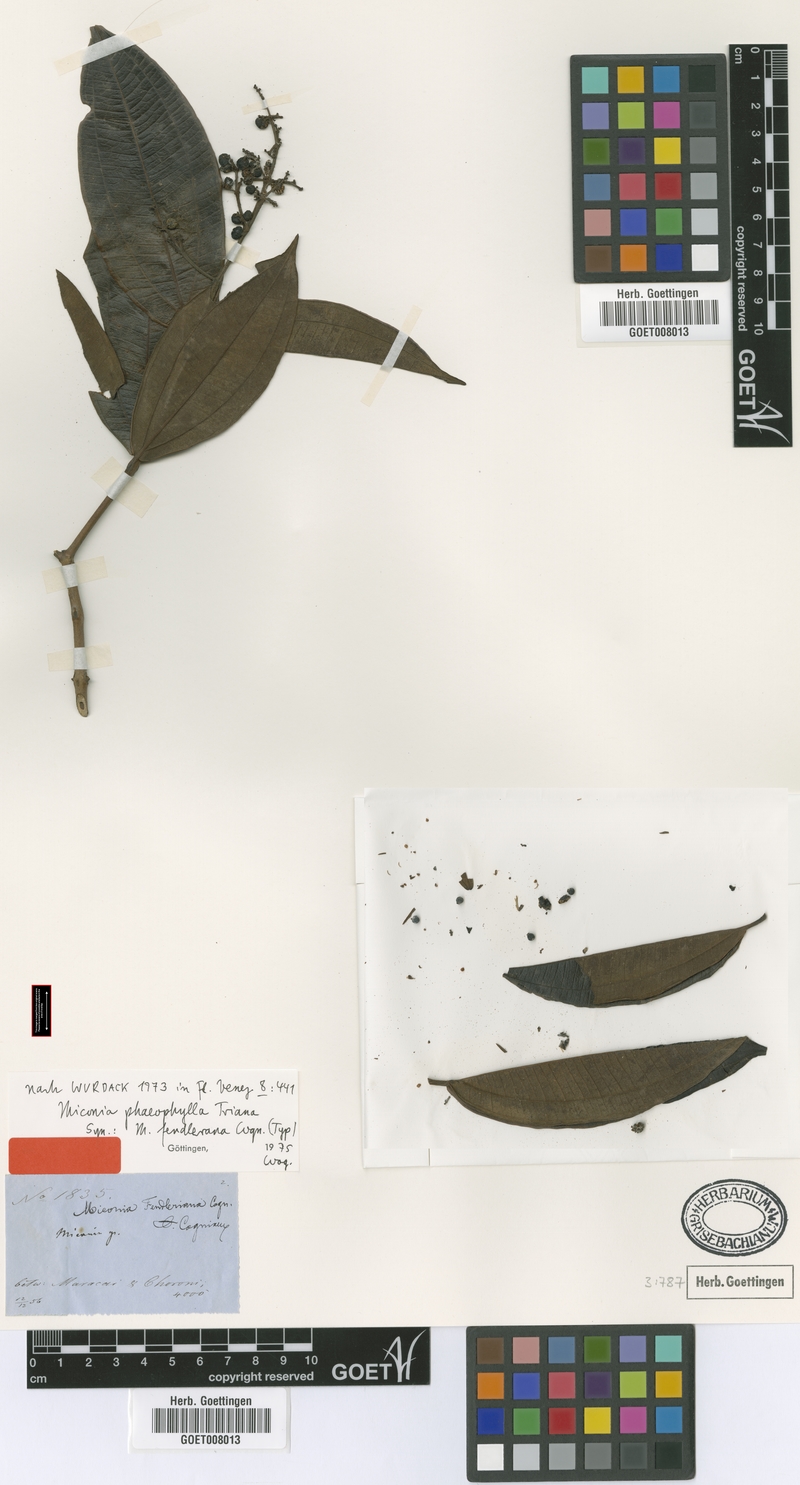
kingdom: Plantae
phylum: Tracheophyta
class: Magnoliopsida
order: Myrtales
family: Melastomataceae
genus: Miconia
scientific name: Miconia phaeophylla
